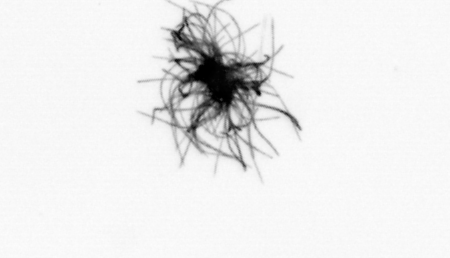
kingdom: Bacteria
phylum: Cyanobacteria
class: Cyanobacteriia
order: Cyanobacteriales
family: Microcoleaceae
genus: Trichodesmium
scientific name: Trichodesmium
